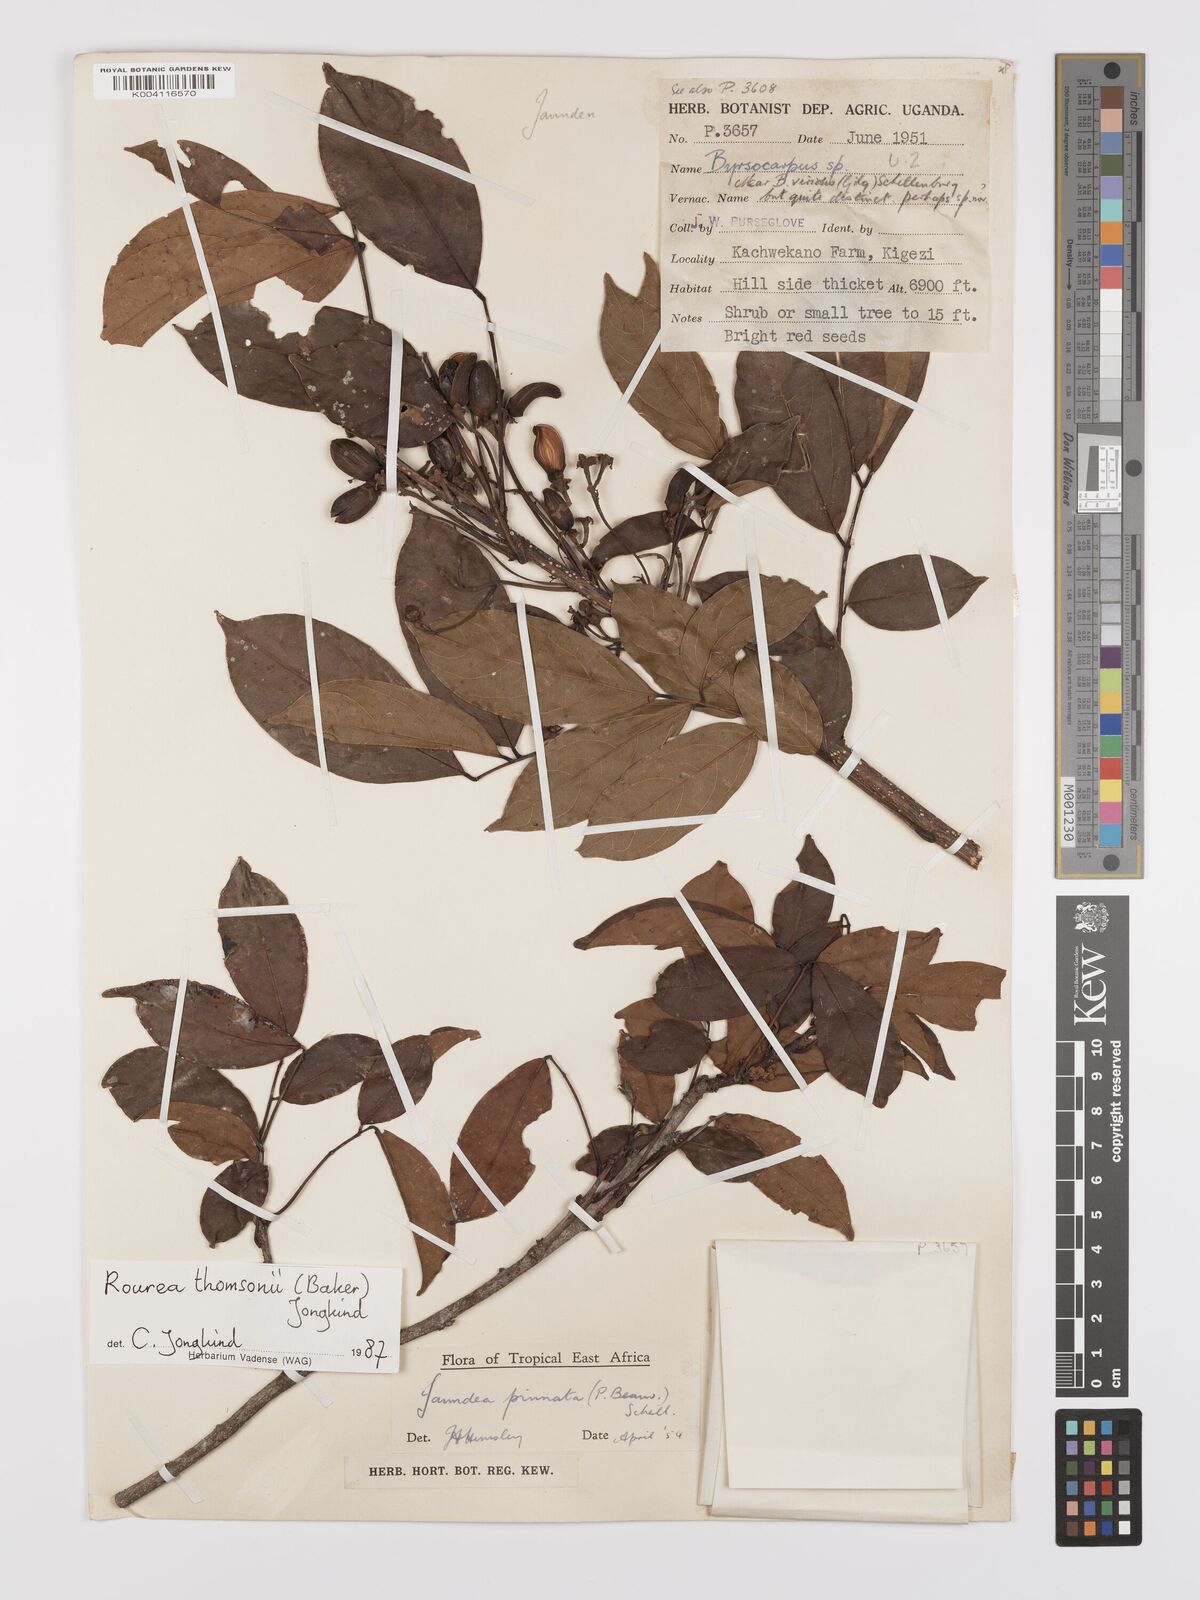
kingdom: Plantae
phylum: Tracheophyta
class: Magnoliopsida
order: Oxalidales
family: Connaraceae
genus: Rourea
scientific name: Rourea pinnata
